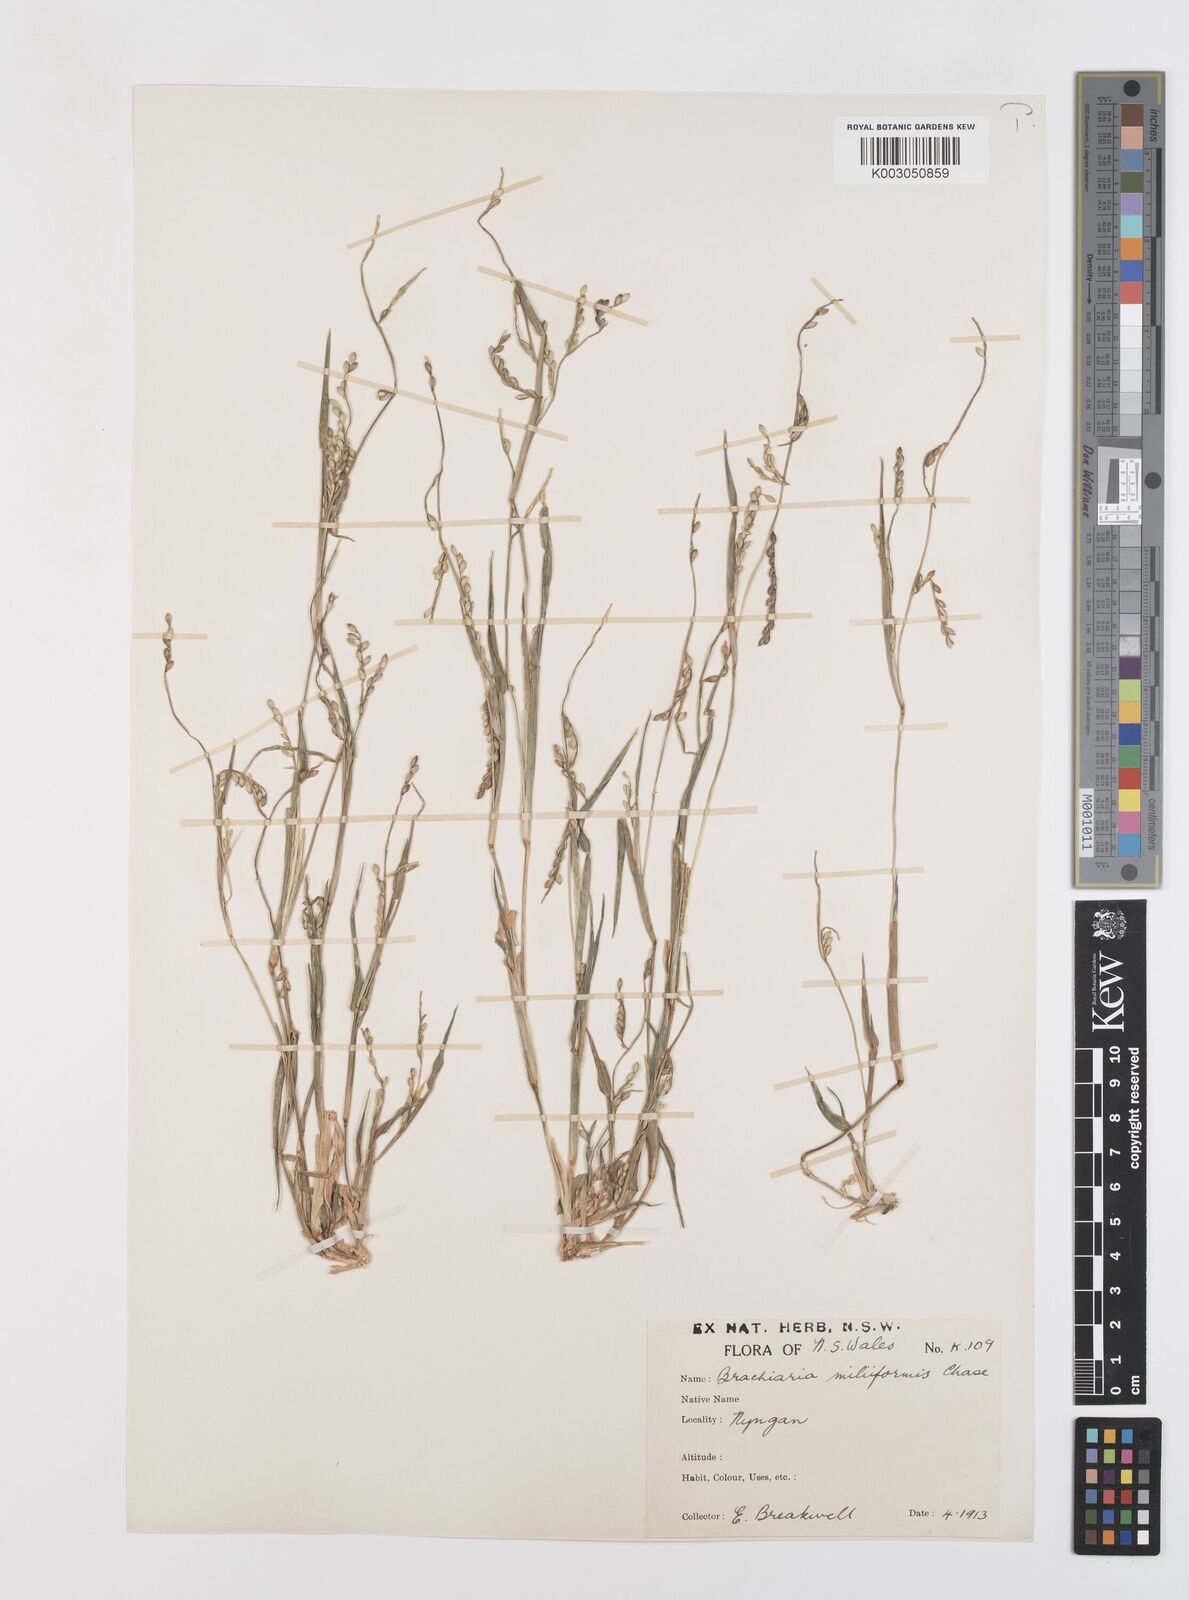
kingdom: Plantae
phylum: Tracheophyta
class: Liliopsida
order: Poales
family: Poaceae
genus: Urochloa
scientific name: Urochloa subquadripara
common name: Armgrass millet
